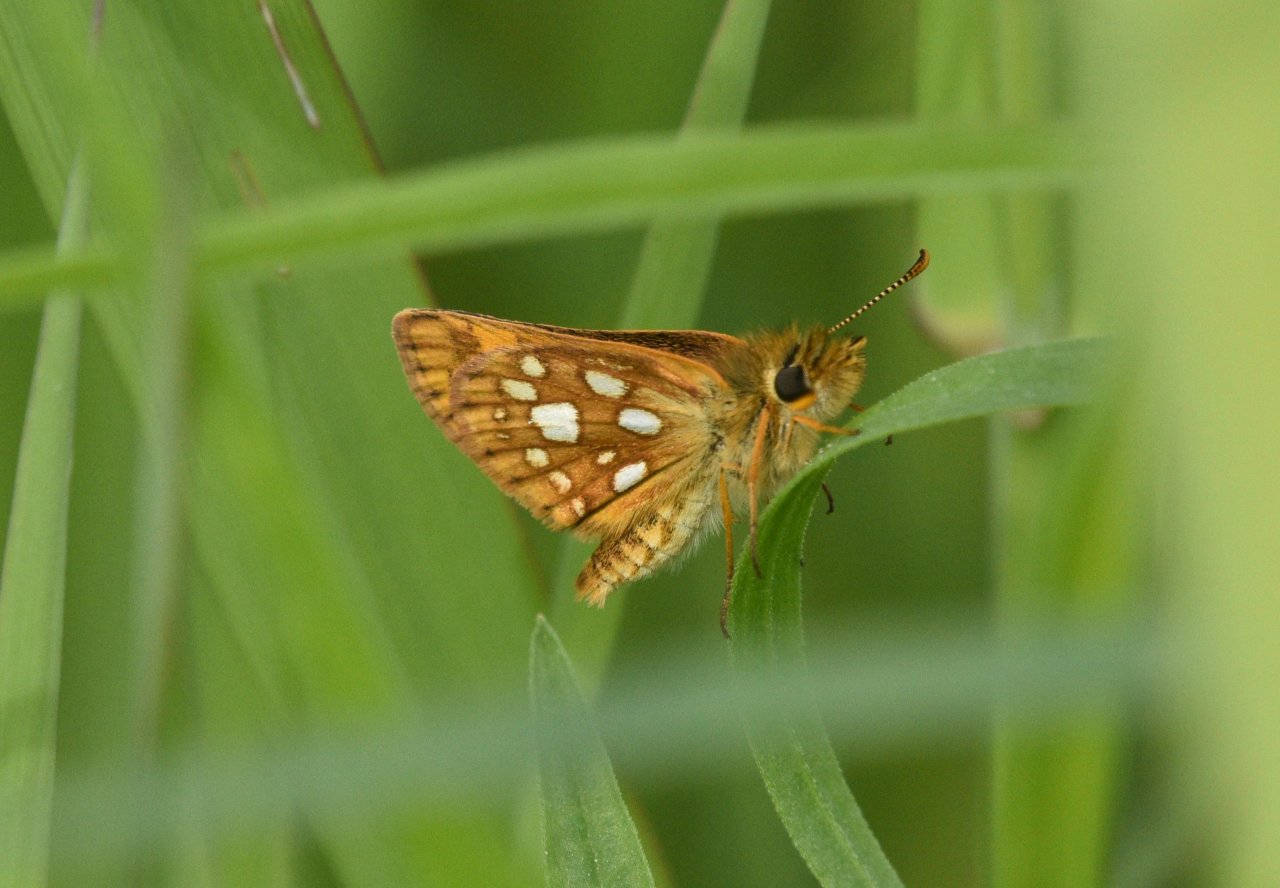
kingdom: Animalia
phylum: Arthropoda
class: Insecta
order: Lepidoptera
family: Hesperiidae
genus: Carterocephalus
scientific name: Carterocephalus palaemon
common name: Chequered Skipper
